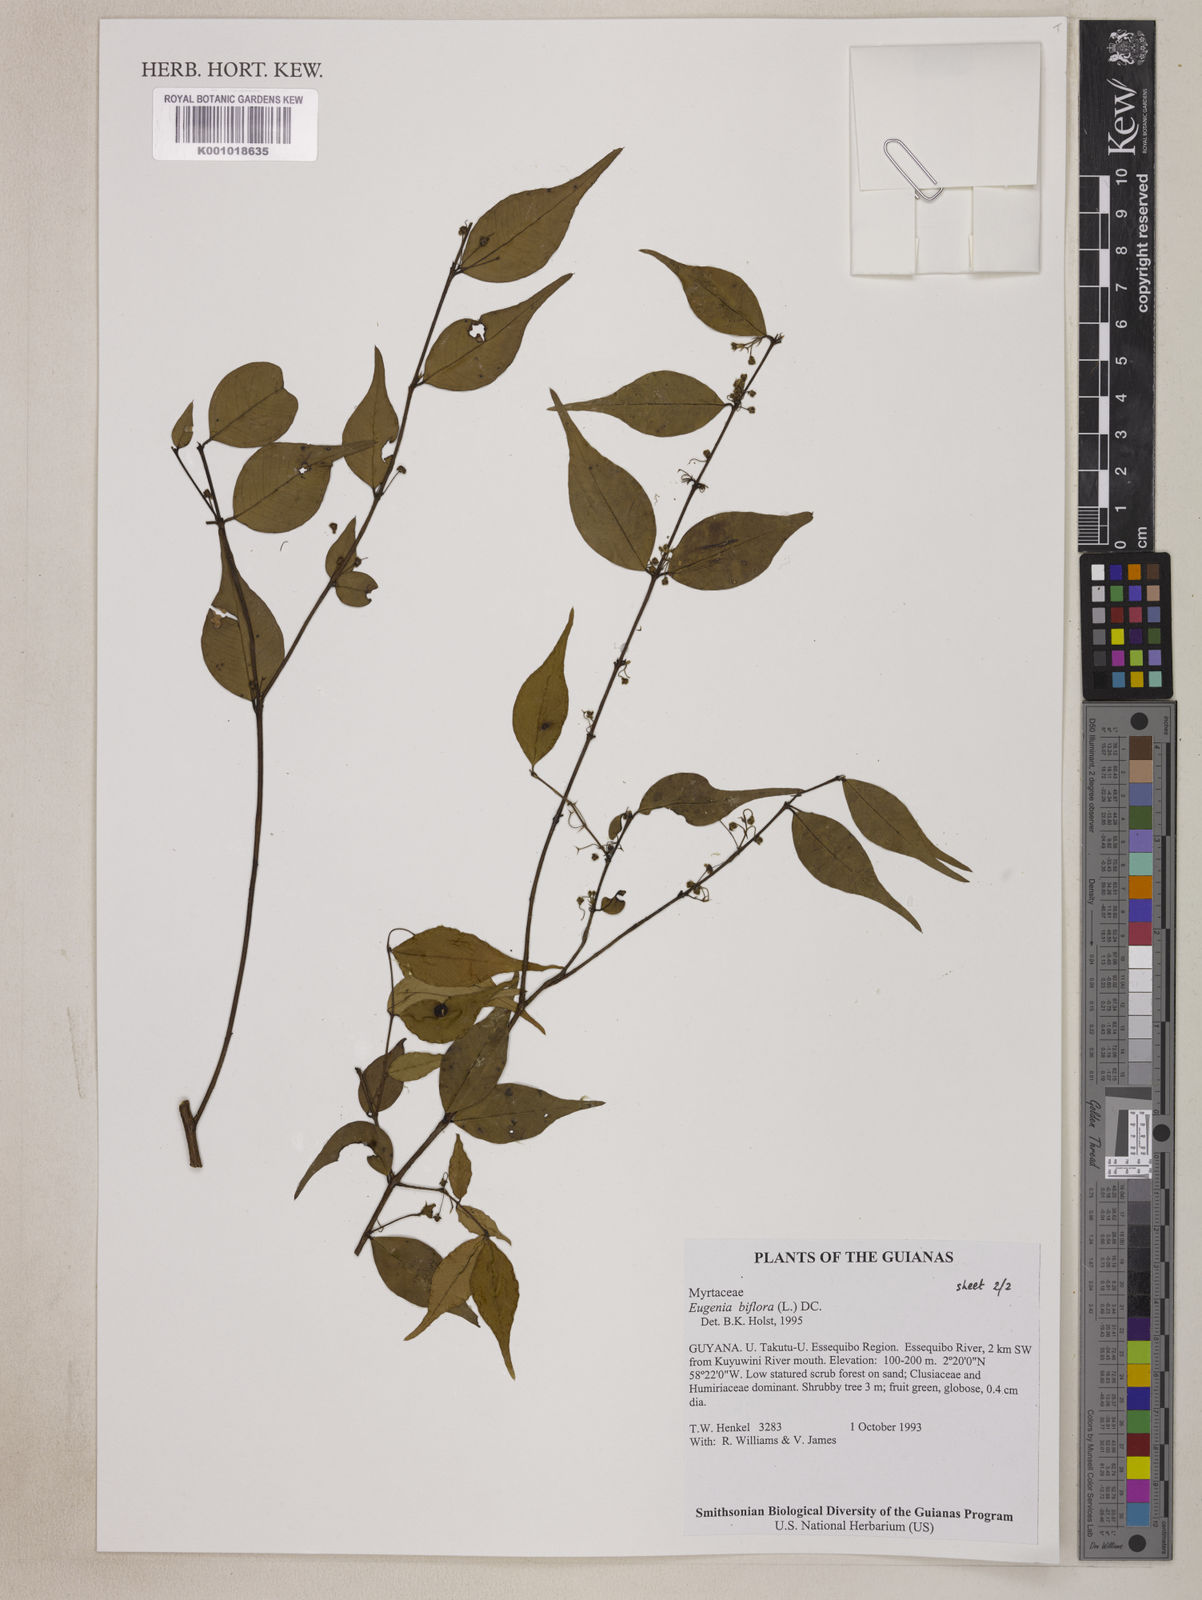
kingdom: Plantae
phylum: Tracheophyta
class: Magnoliopsida
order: Myrtales
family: Myrtaceae
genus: Eugenia
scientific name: Eugenia biflora
